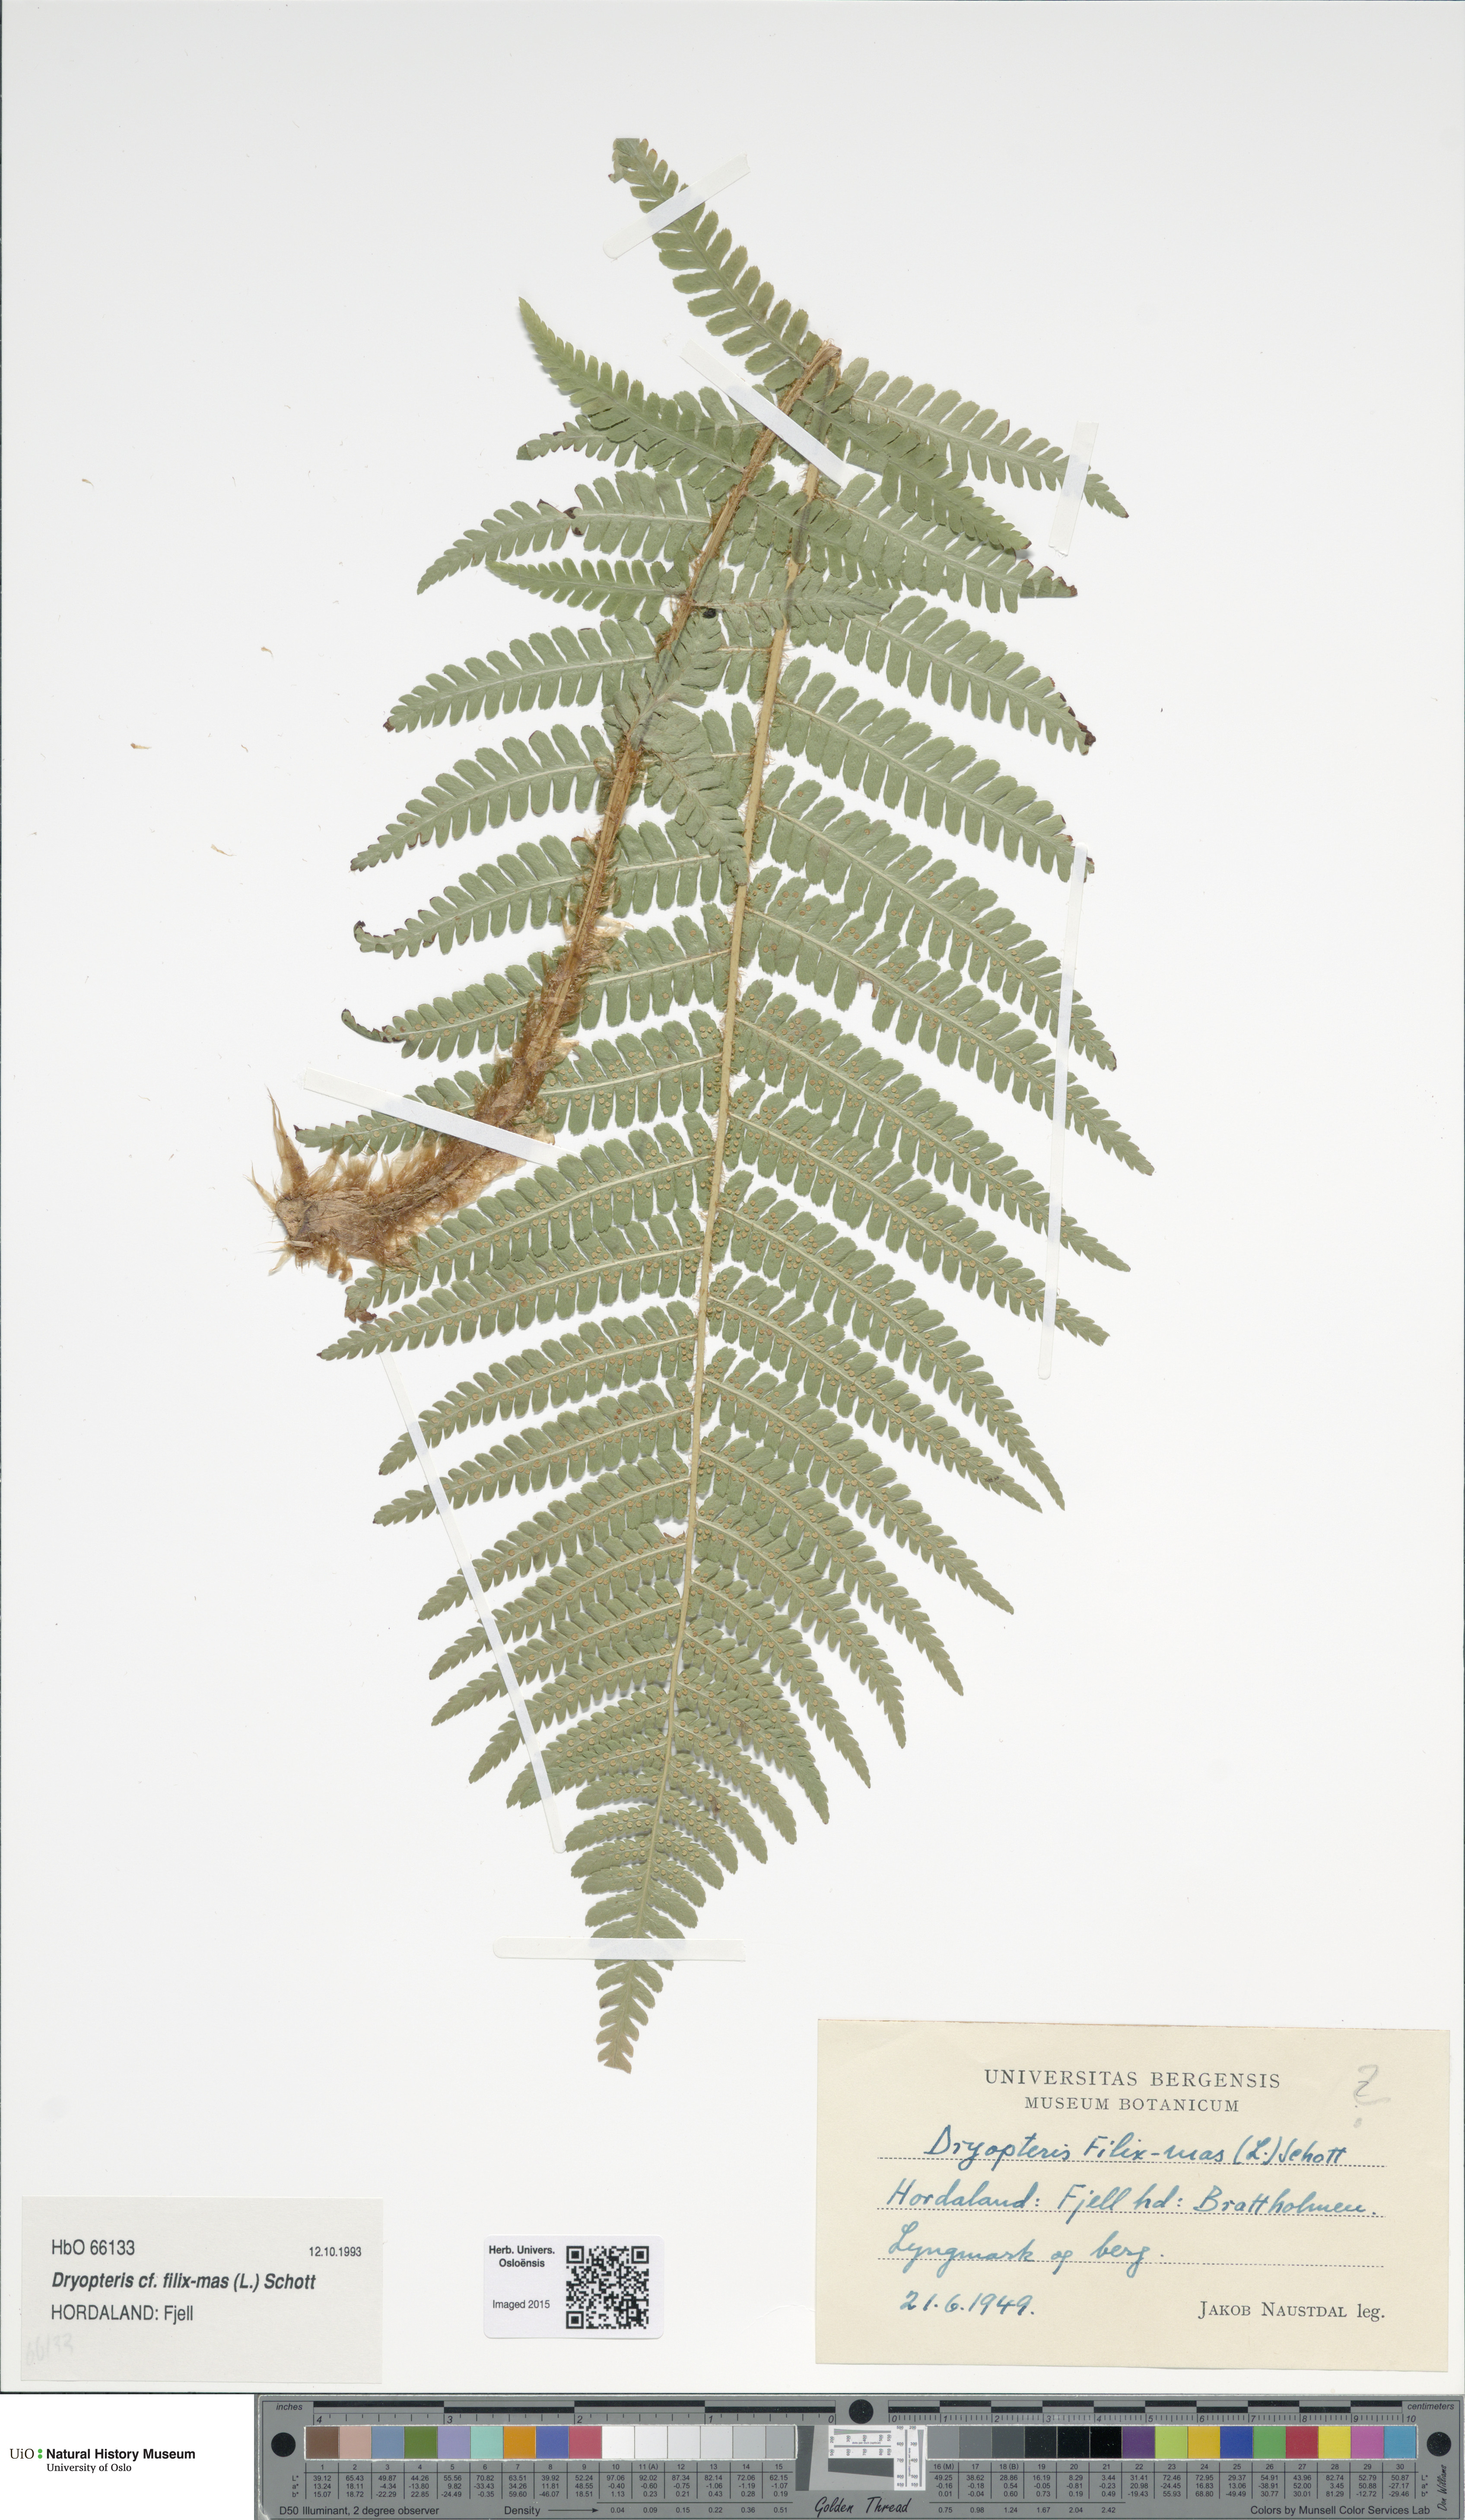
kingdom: Plantae
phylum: Tracheophyta
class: Polypodiopsida
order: Polypodiales
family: Dryopteridaceae
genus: Dryopteris
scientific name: Dryopteris filix-mas
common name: Male fern
